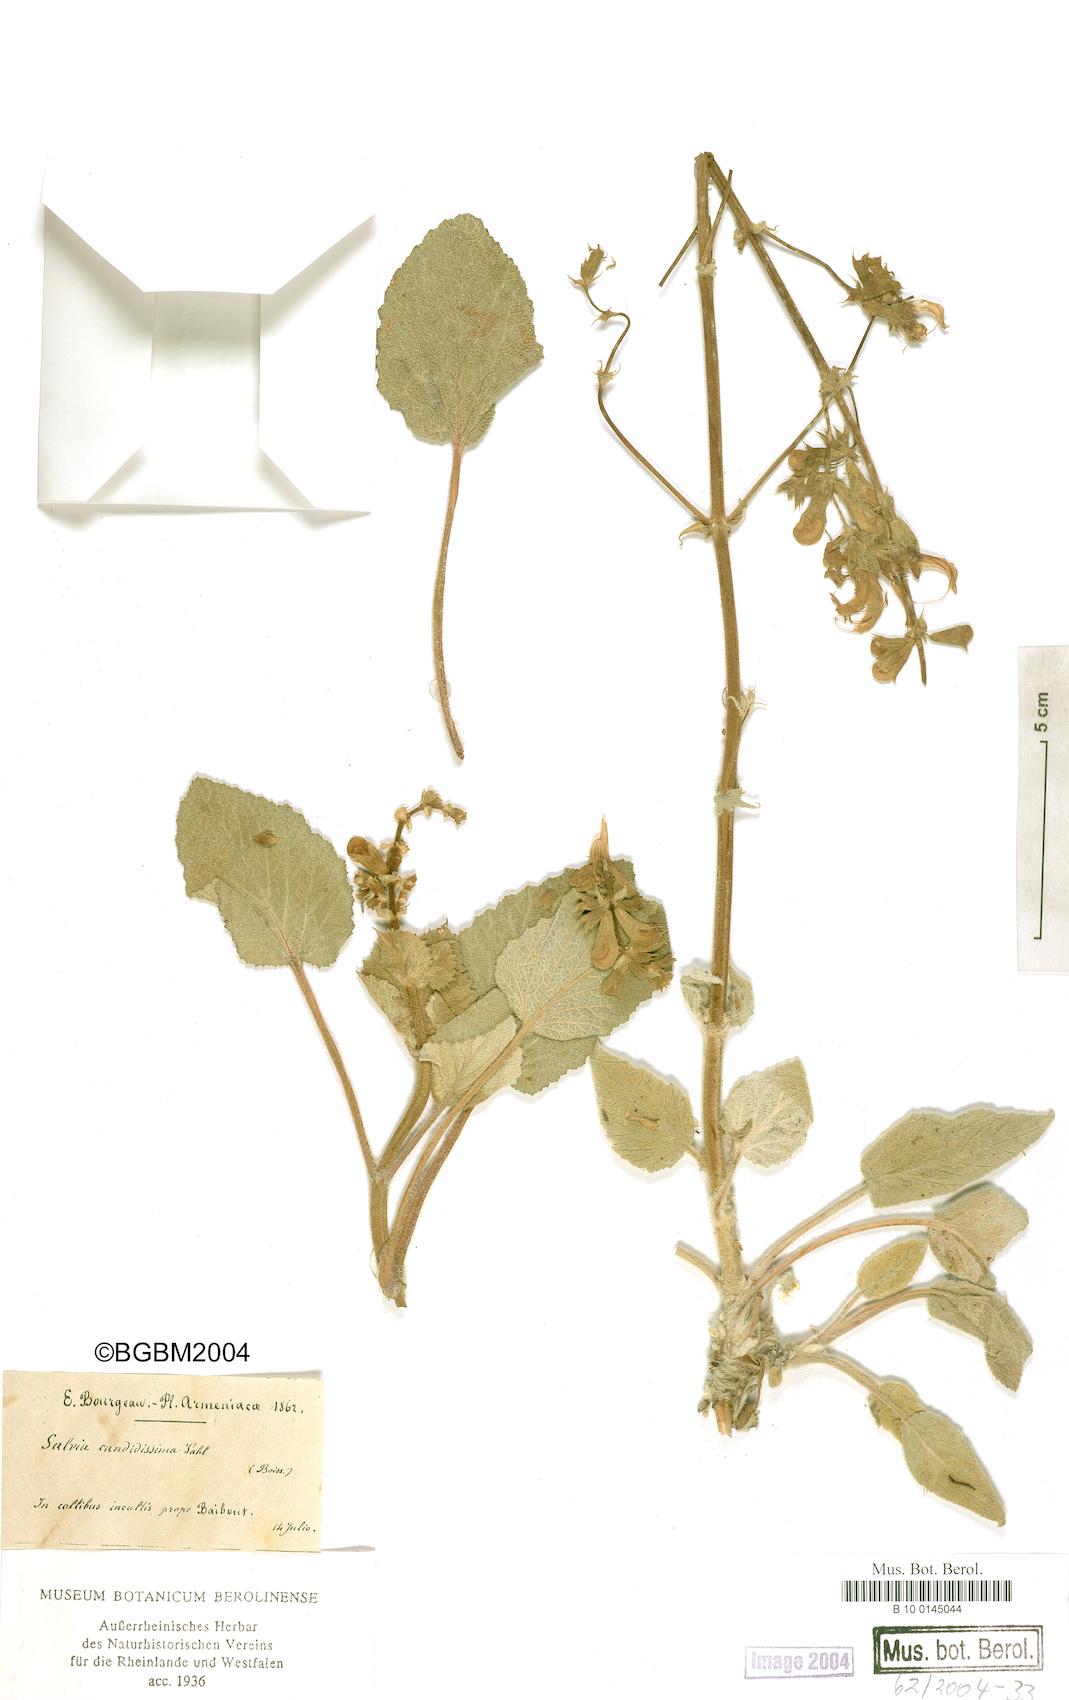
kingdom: Plantae
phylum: Tracheophyta
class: Magnoliopsida
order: Lamiales
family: Lamiaceae
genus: Salvia
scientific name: Salvia candidissima
